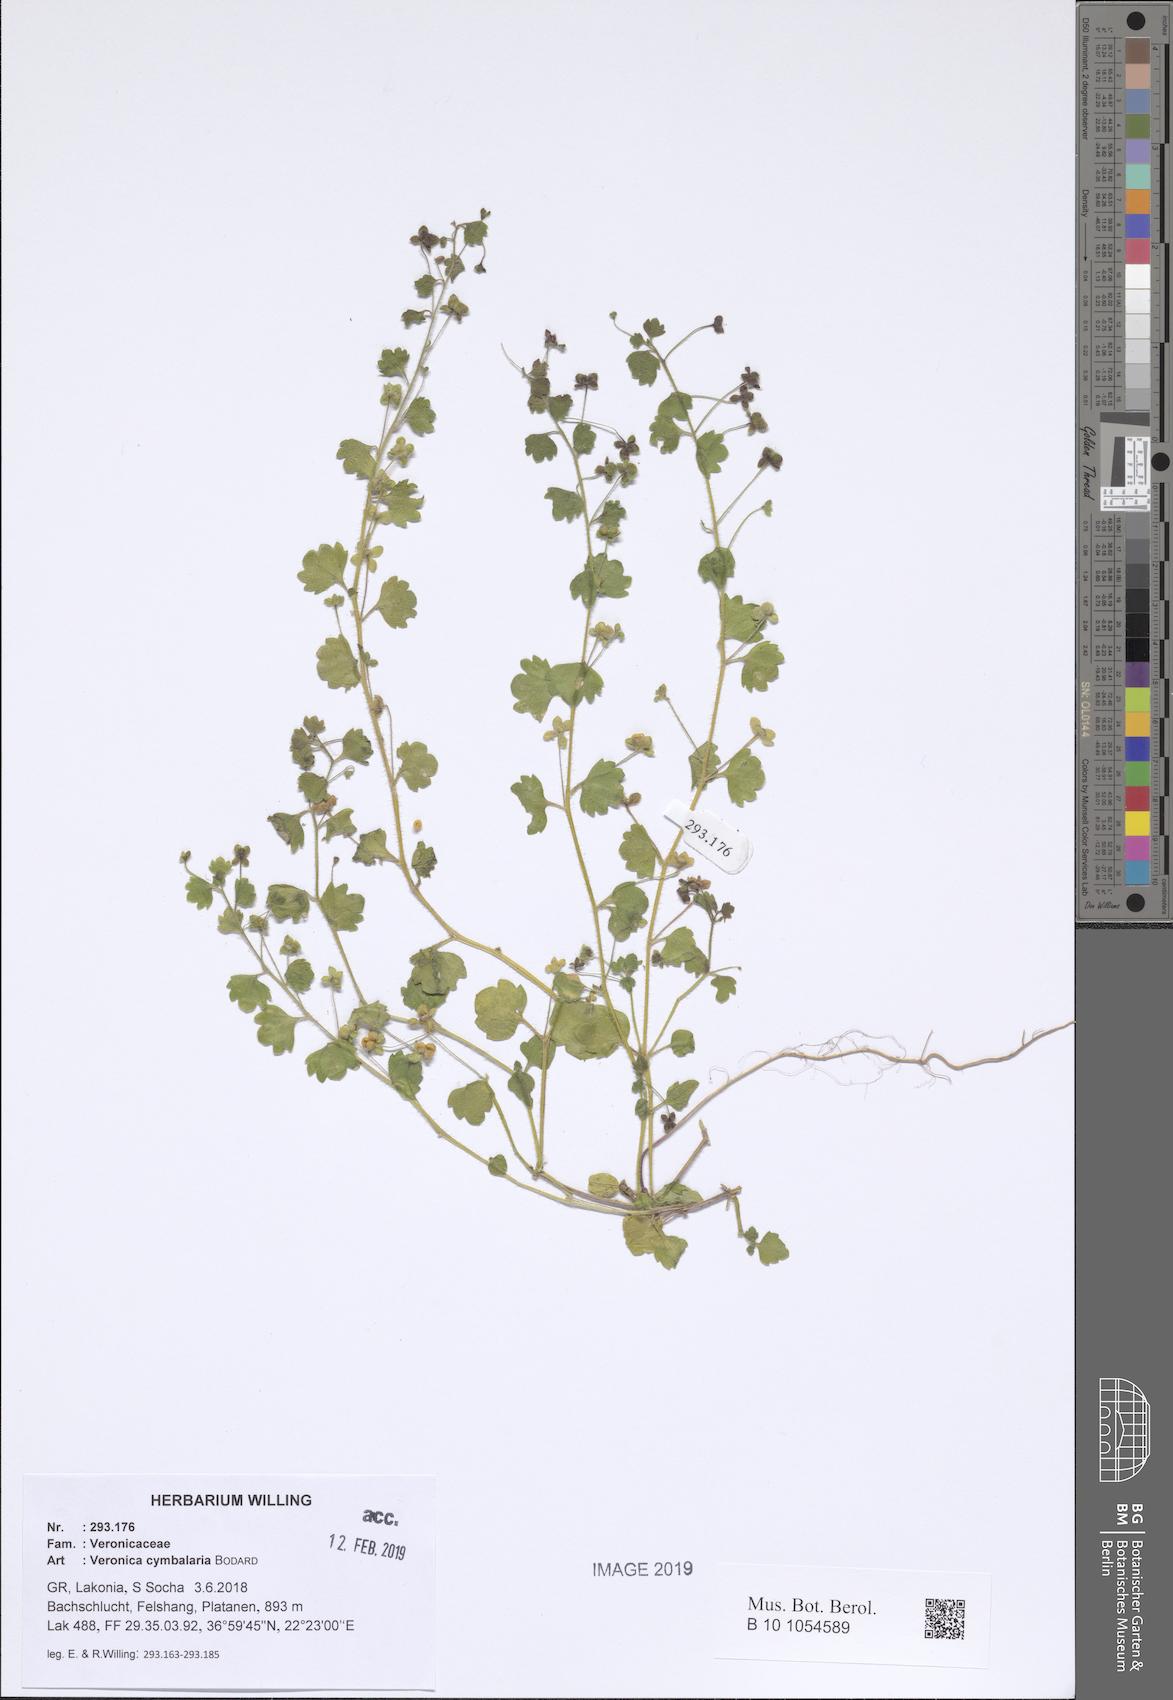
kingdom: Plantae
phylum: Tracheophyta
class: Magnoliopsida
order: Lamiales
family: Plantaginaceae
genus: Veronica
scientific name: Veronica cymbalaria
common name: Pale speedwell
